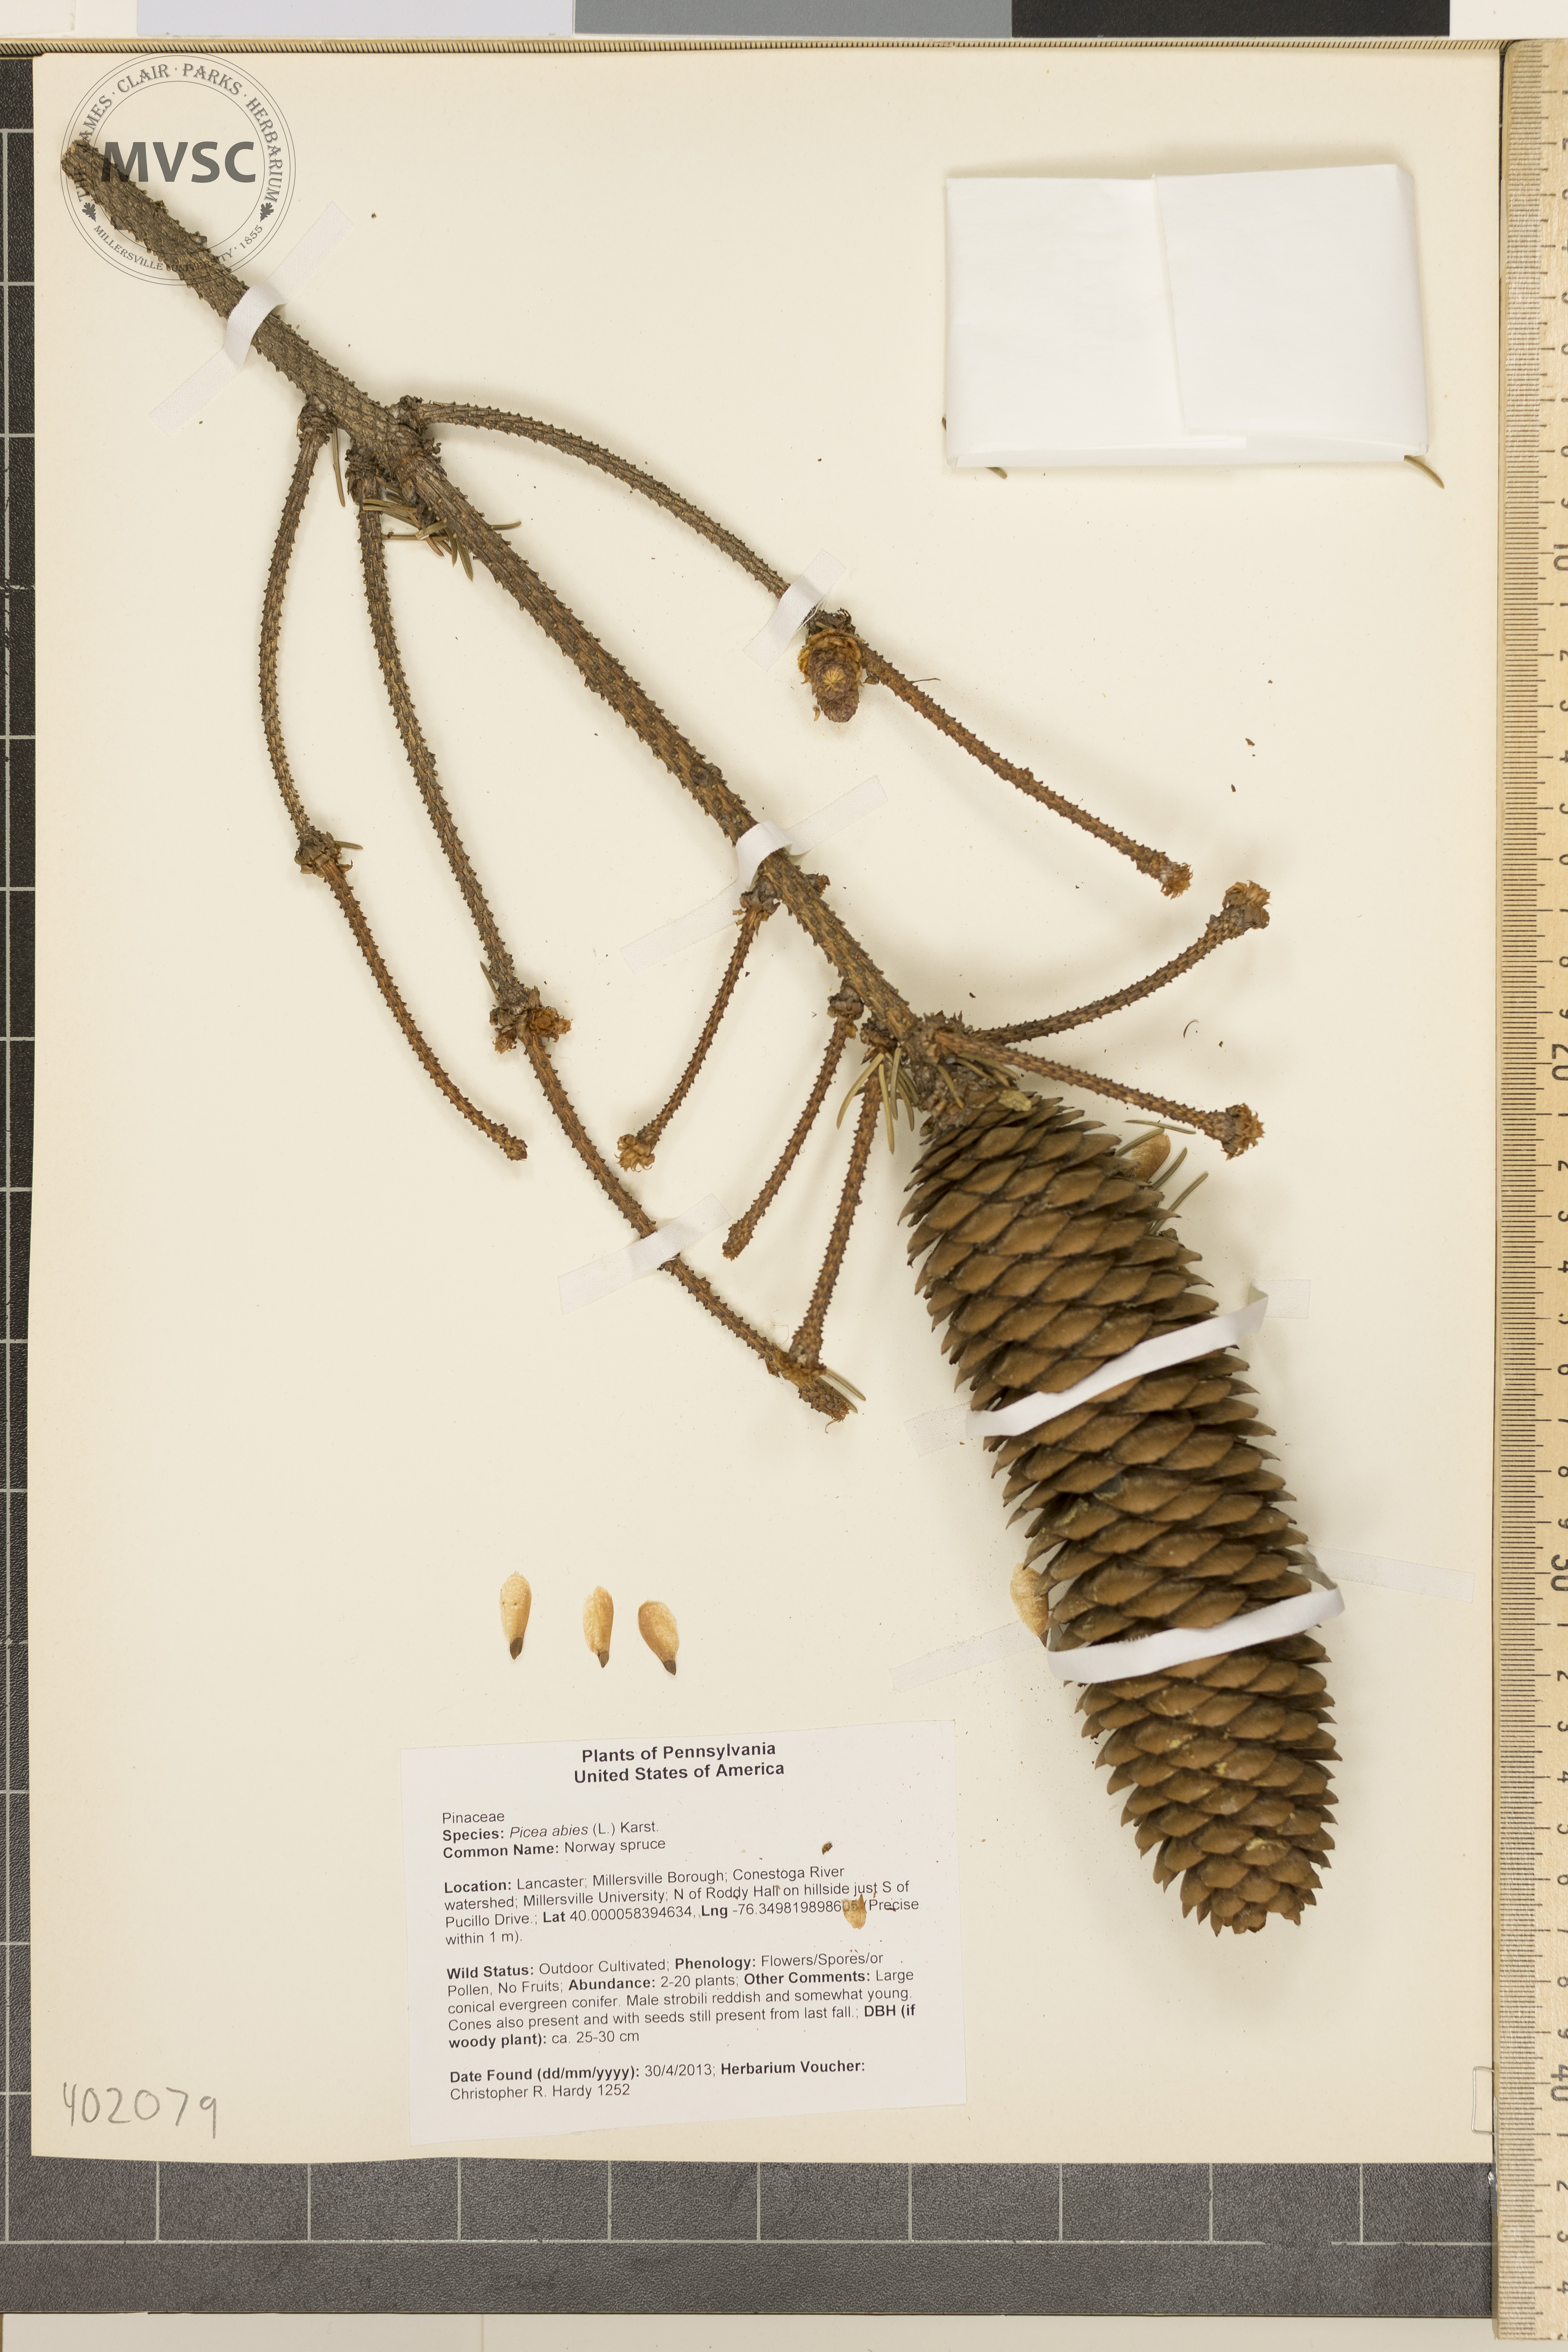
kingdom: Plantae
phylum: Tracheophyta
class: Pinopsida
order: Pinales
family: Pinaceae
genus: Picea
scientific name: Picea abies
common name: Norway spruce
